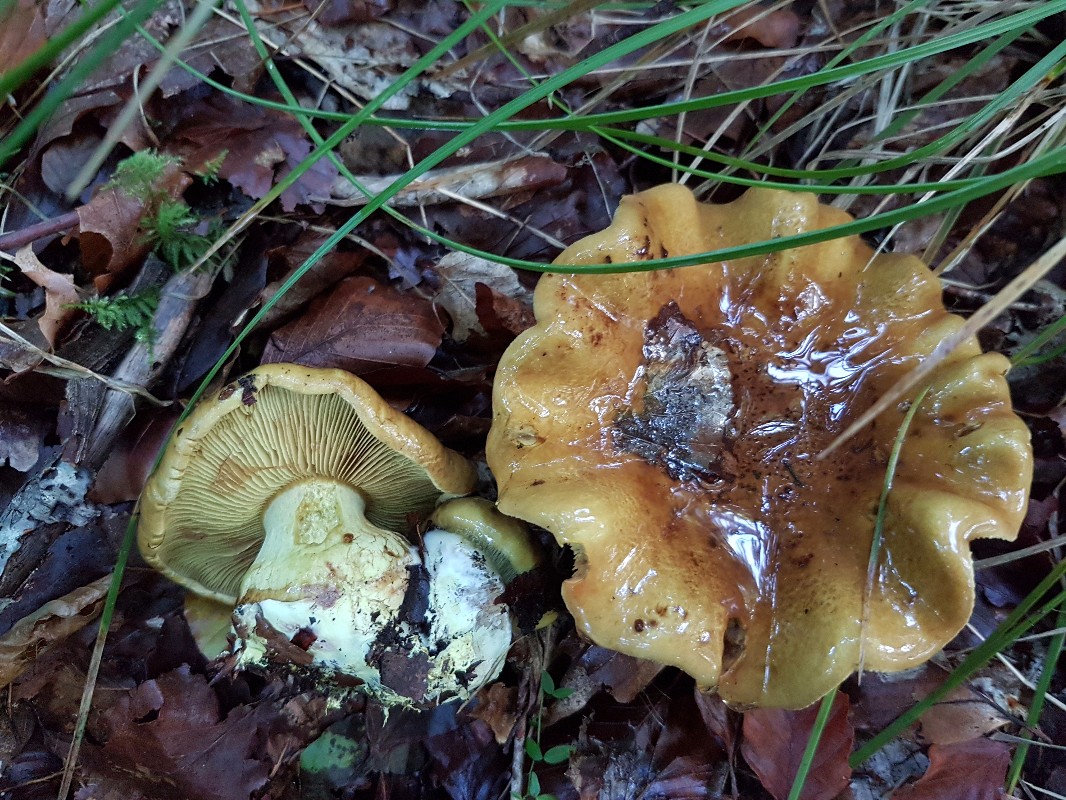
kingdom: Fungi
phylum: Basidiomycota
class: Agaricomycetes
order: Agaricales
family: Cortinariaceae
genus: Calonarius
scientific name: Calonarius citrinus
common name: citrongul slørhat
